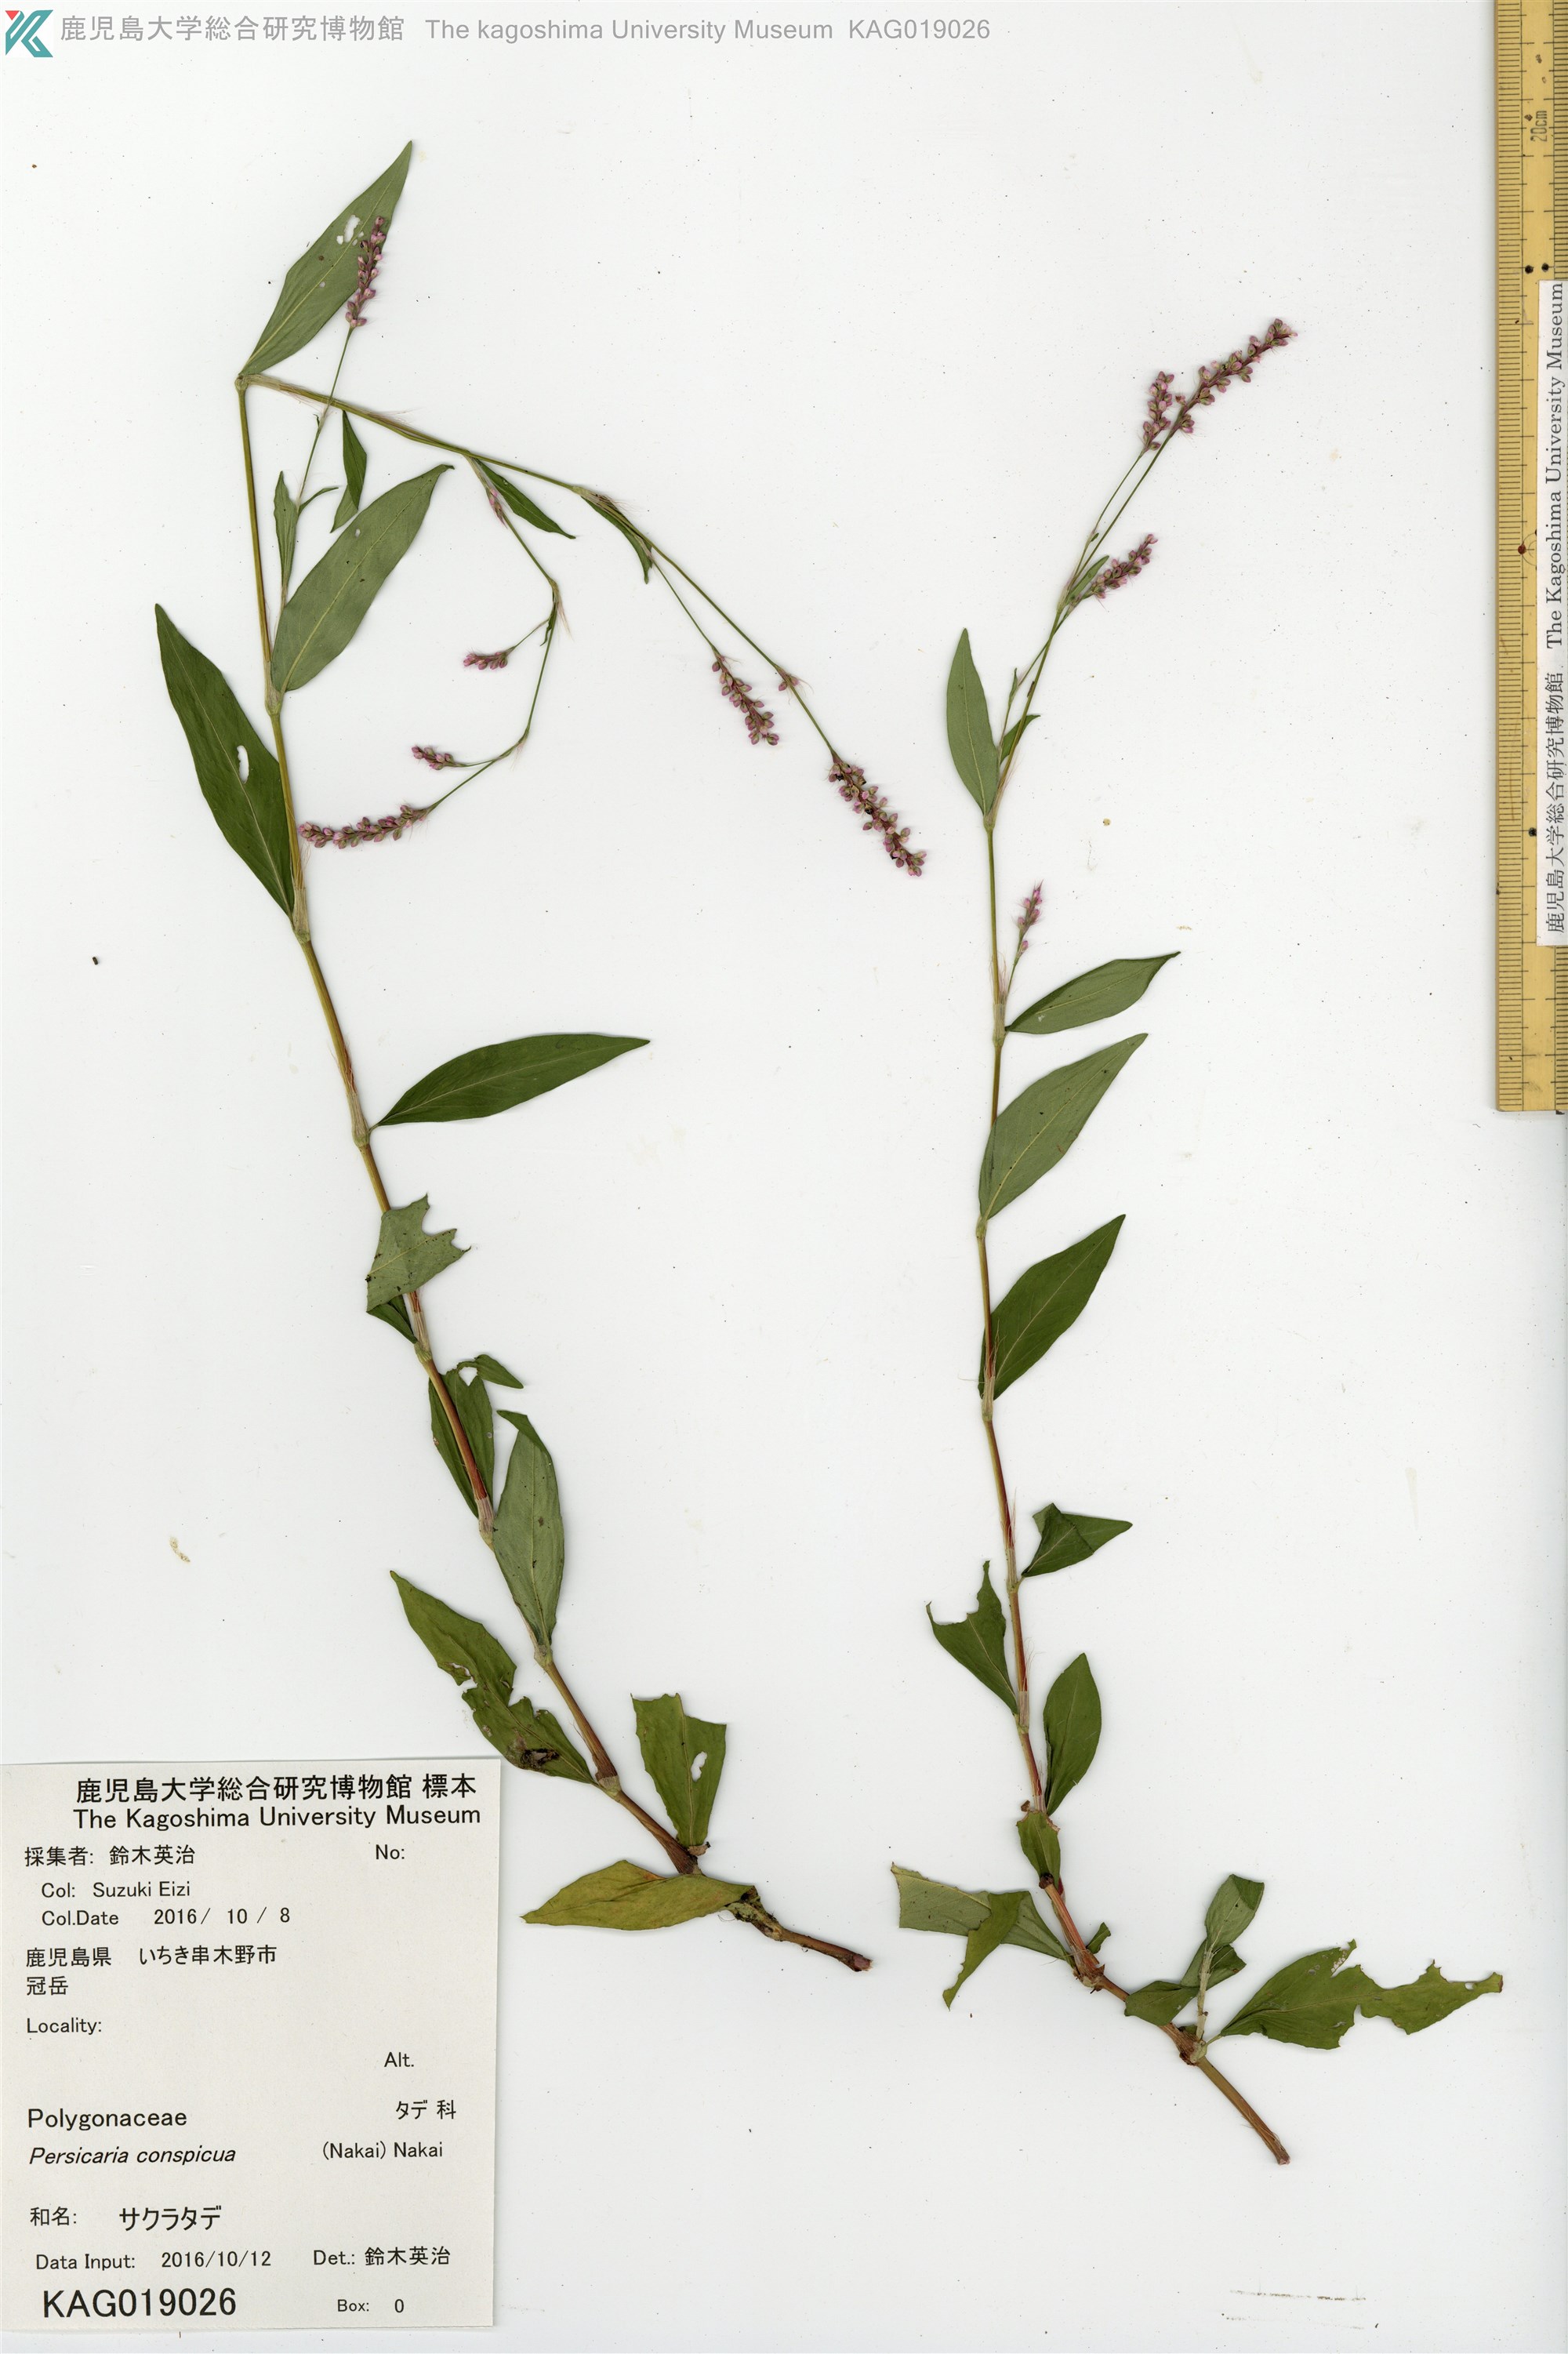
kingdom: Plantae
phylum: Tracheophyta
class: Magnoliopsida
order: Caryophyllales
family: Polygonaceae
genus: Persicaria
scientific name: Persicaria longiseta
